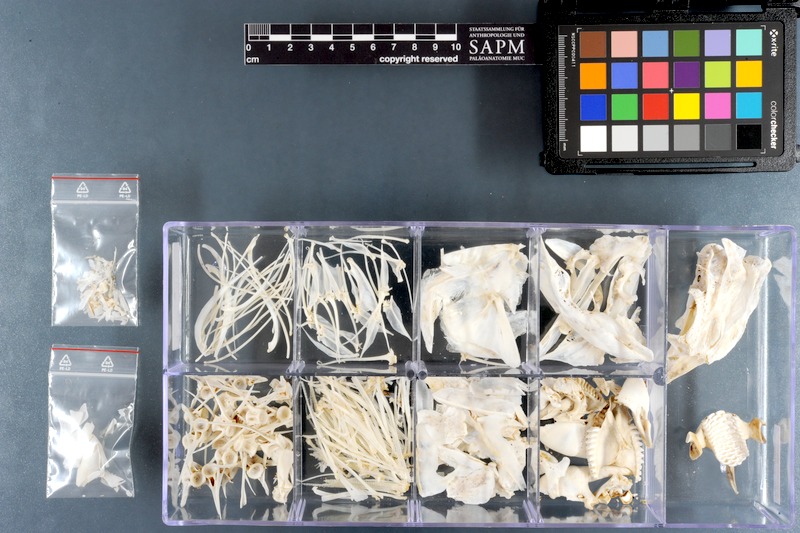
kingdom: Animalia
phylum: Chordata
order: Perciformes
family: Scaridae
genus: Scarus
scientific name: Scarus ghobban
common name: Blue-barred parrotfish
